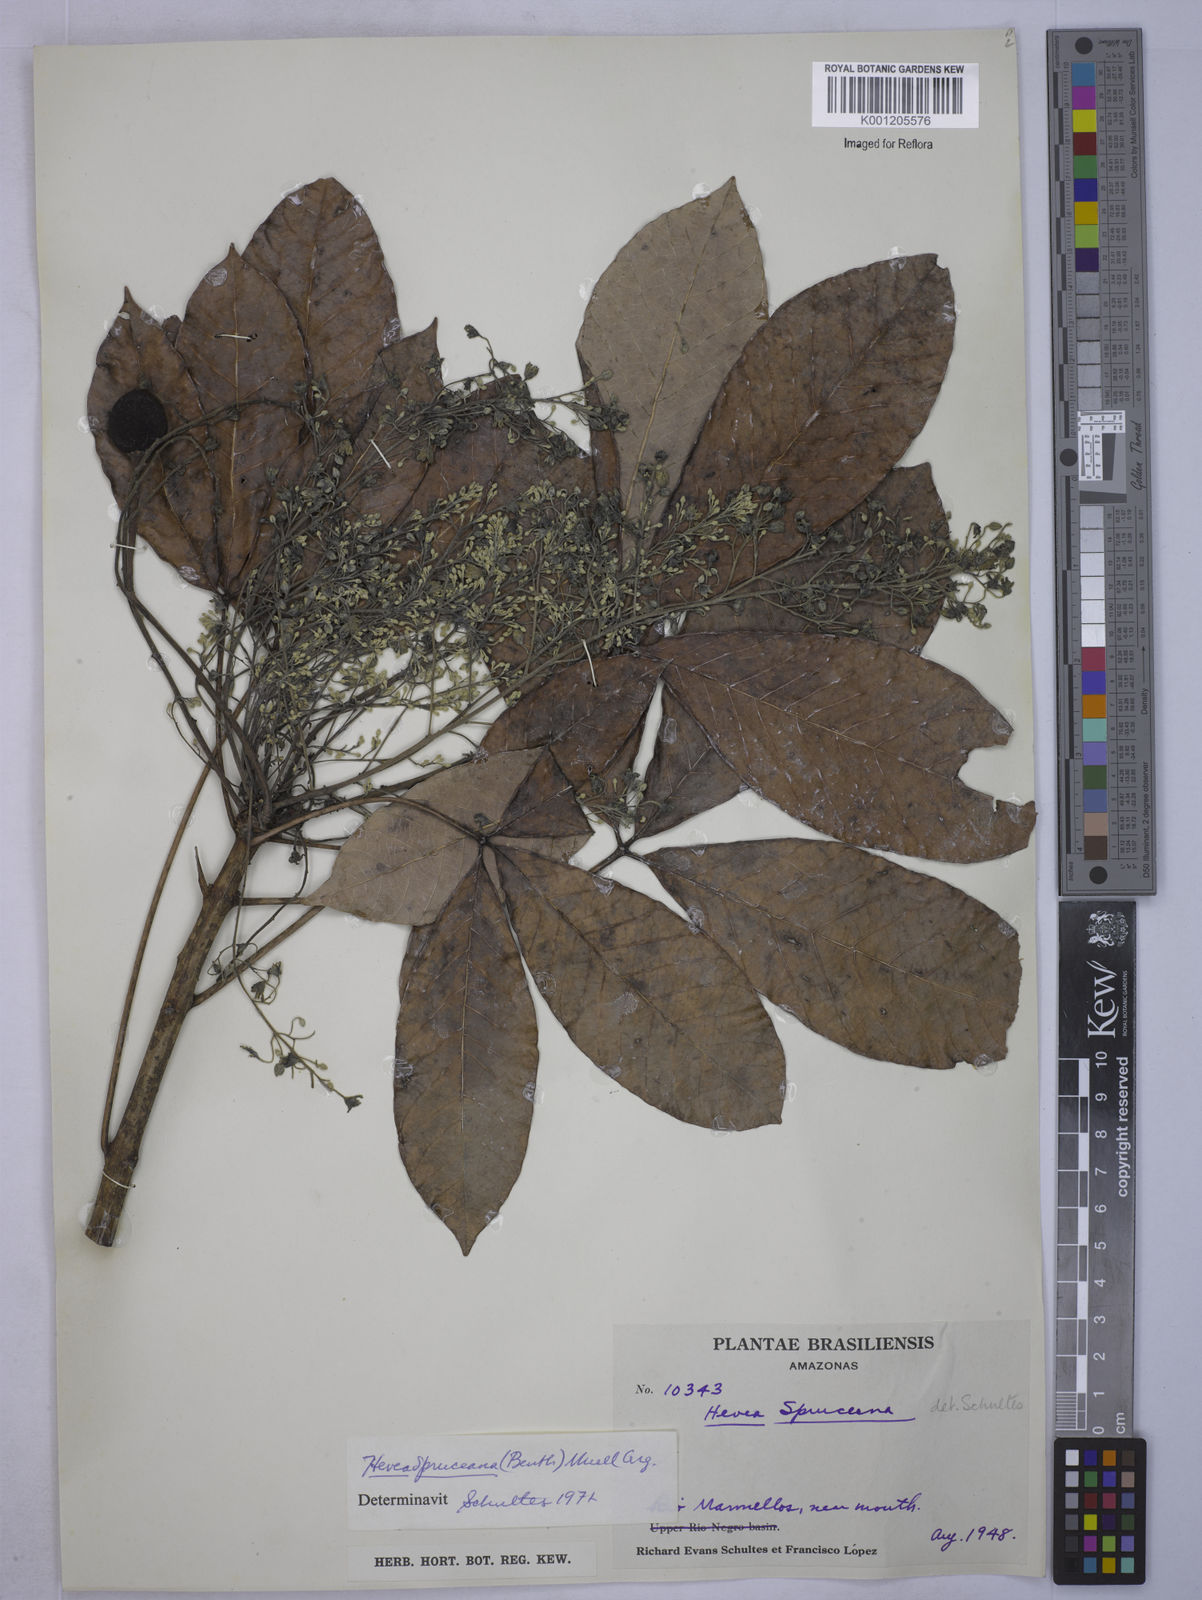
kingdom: Plantae
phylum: Tracheophyta
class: Magnoliopsida
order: Malpighiales
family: Euphorbiaceae
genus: Hevea
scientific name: Hevea
